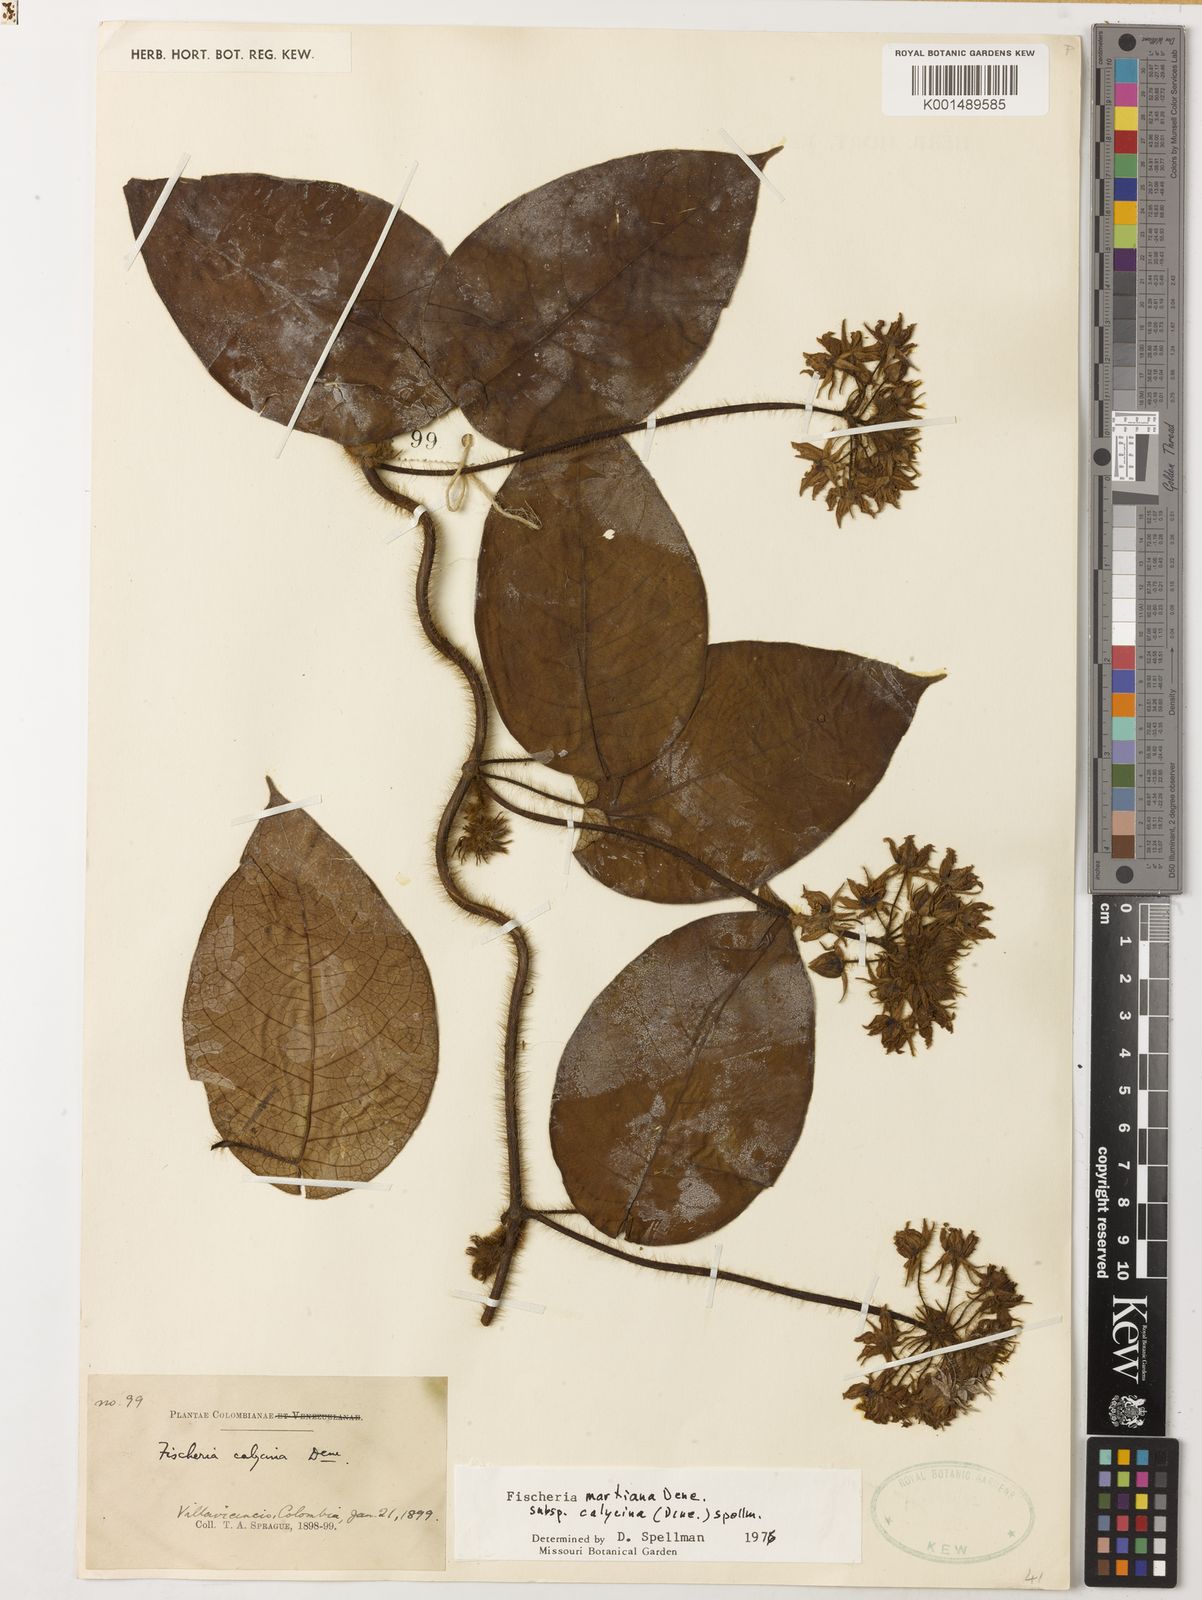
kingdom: Plantae
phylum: Tracheophyta
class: Magnoliopsida
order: Gentianales
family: Apocynaceae
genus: Fischeria
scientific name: Fischeria stellata
